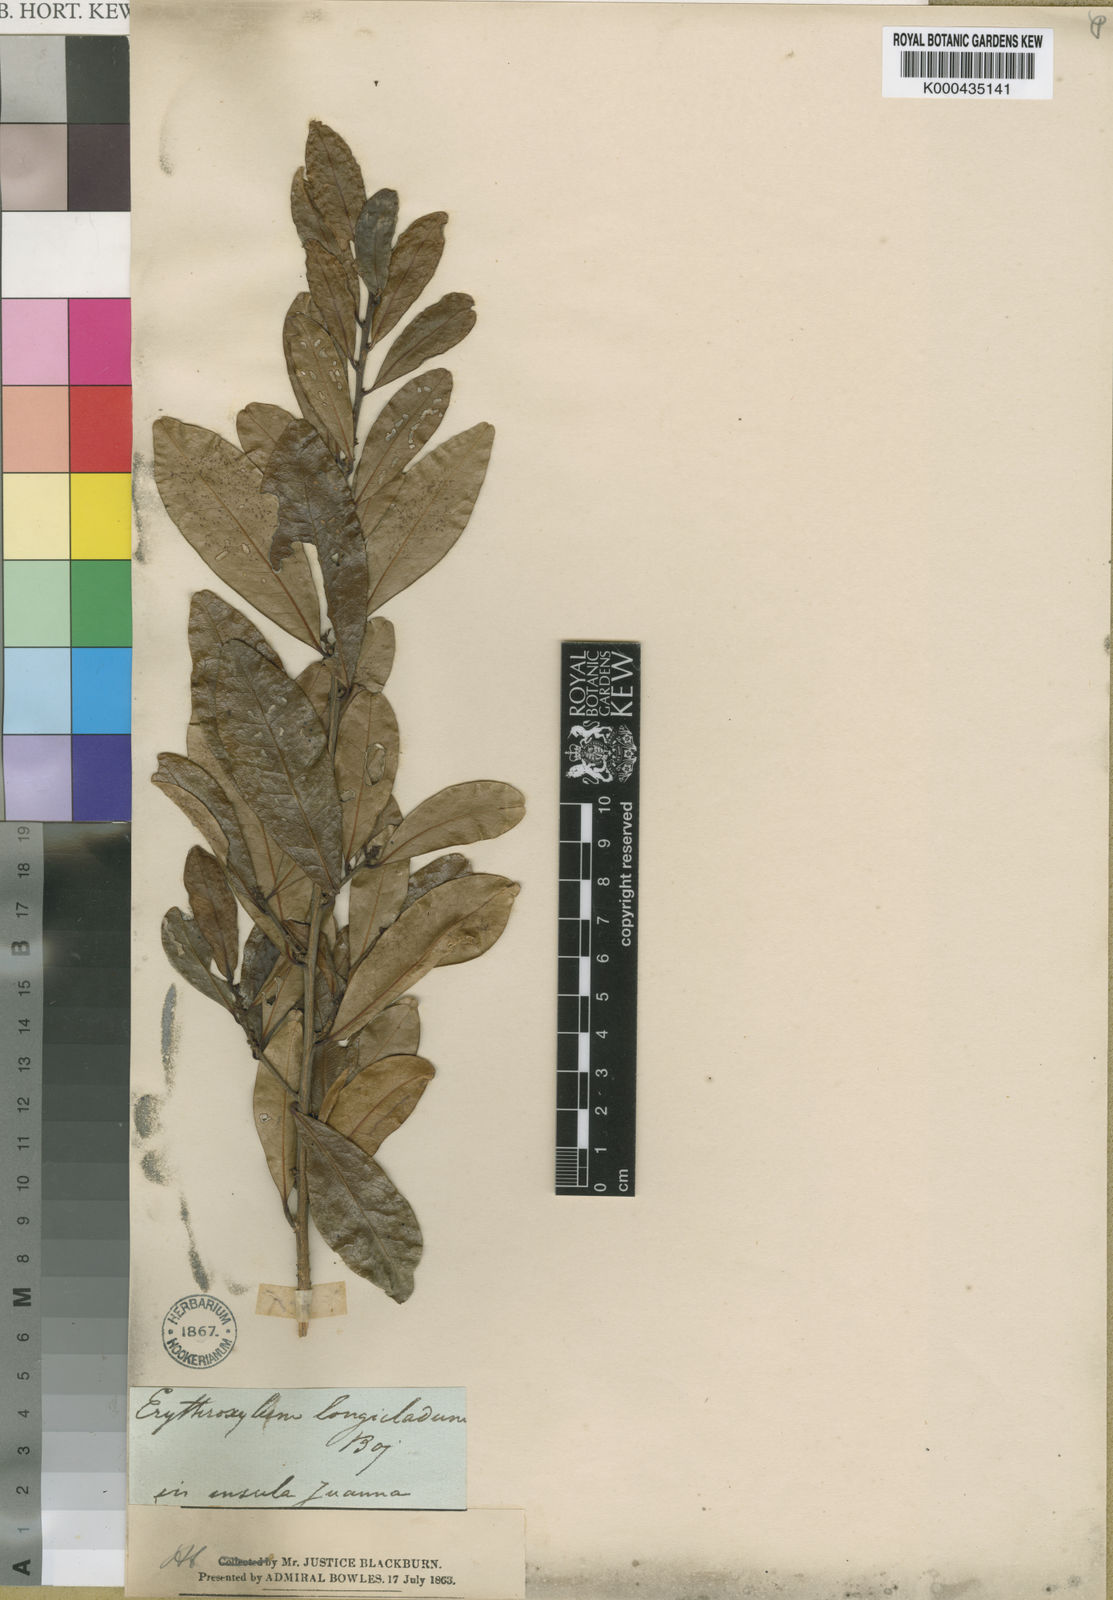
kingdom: Plantae
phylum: Tracheophyta
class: Magnoliopsida
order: Malpighiales
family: Erythroxylaceae
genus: Erythroxylum
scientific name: Erythroxylum lanceum
